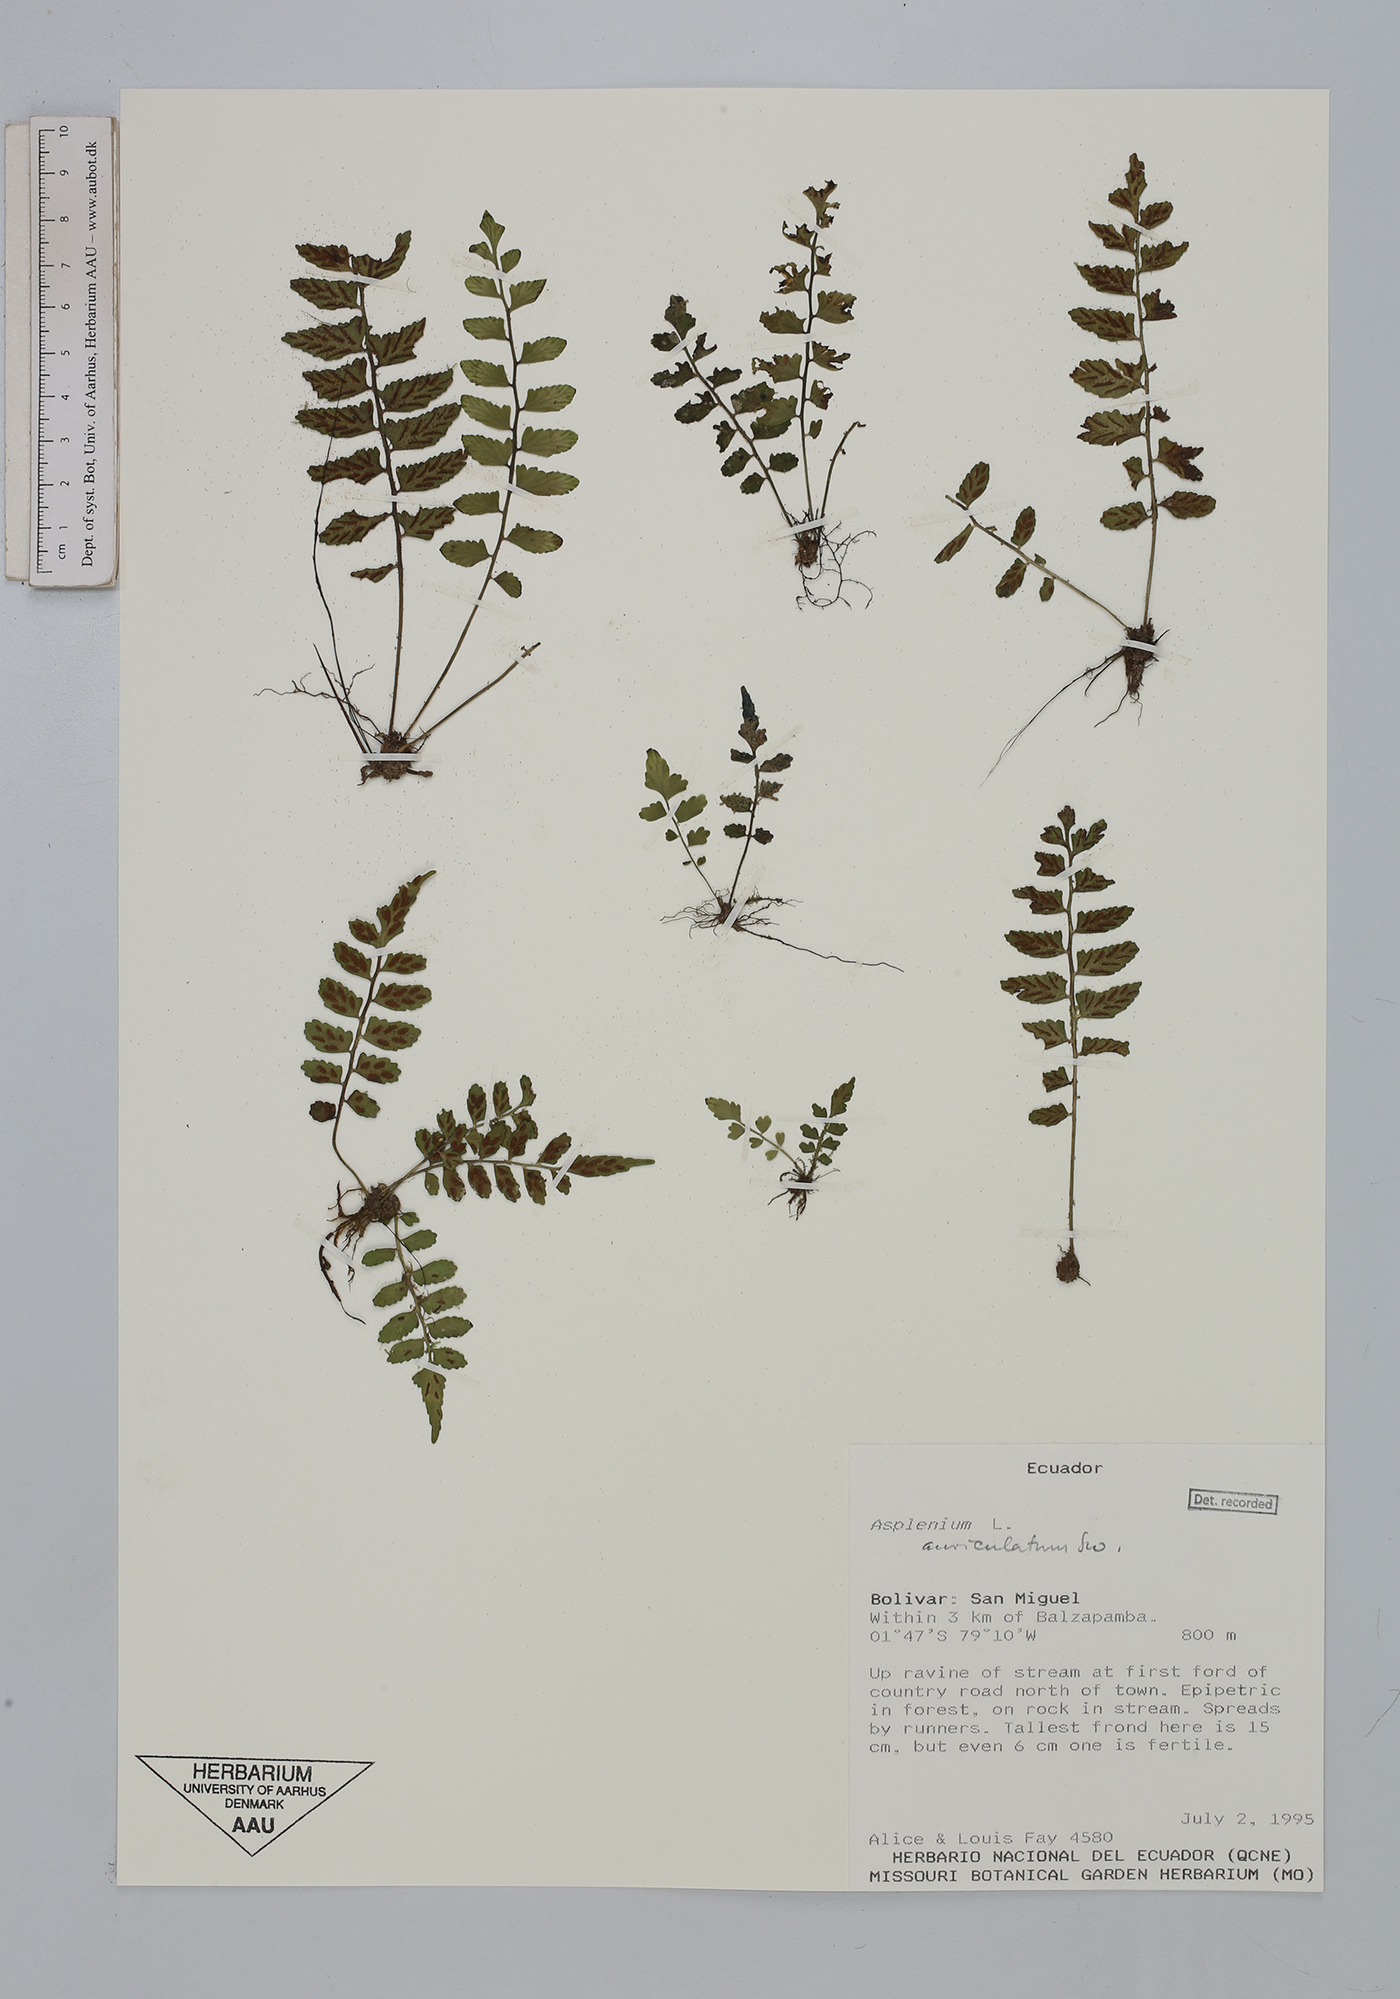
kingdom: Plantae
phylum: Tracheophyta
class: Polypodiopsida
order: Polypodiales
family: Aspleniaceae
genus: Asplenium
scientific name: Asplenium auriculatum
